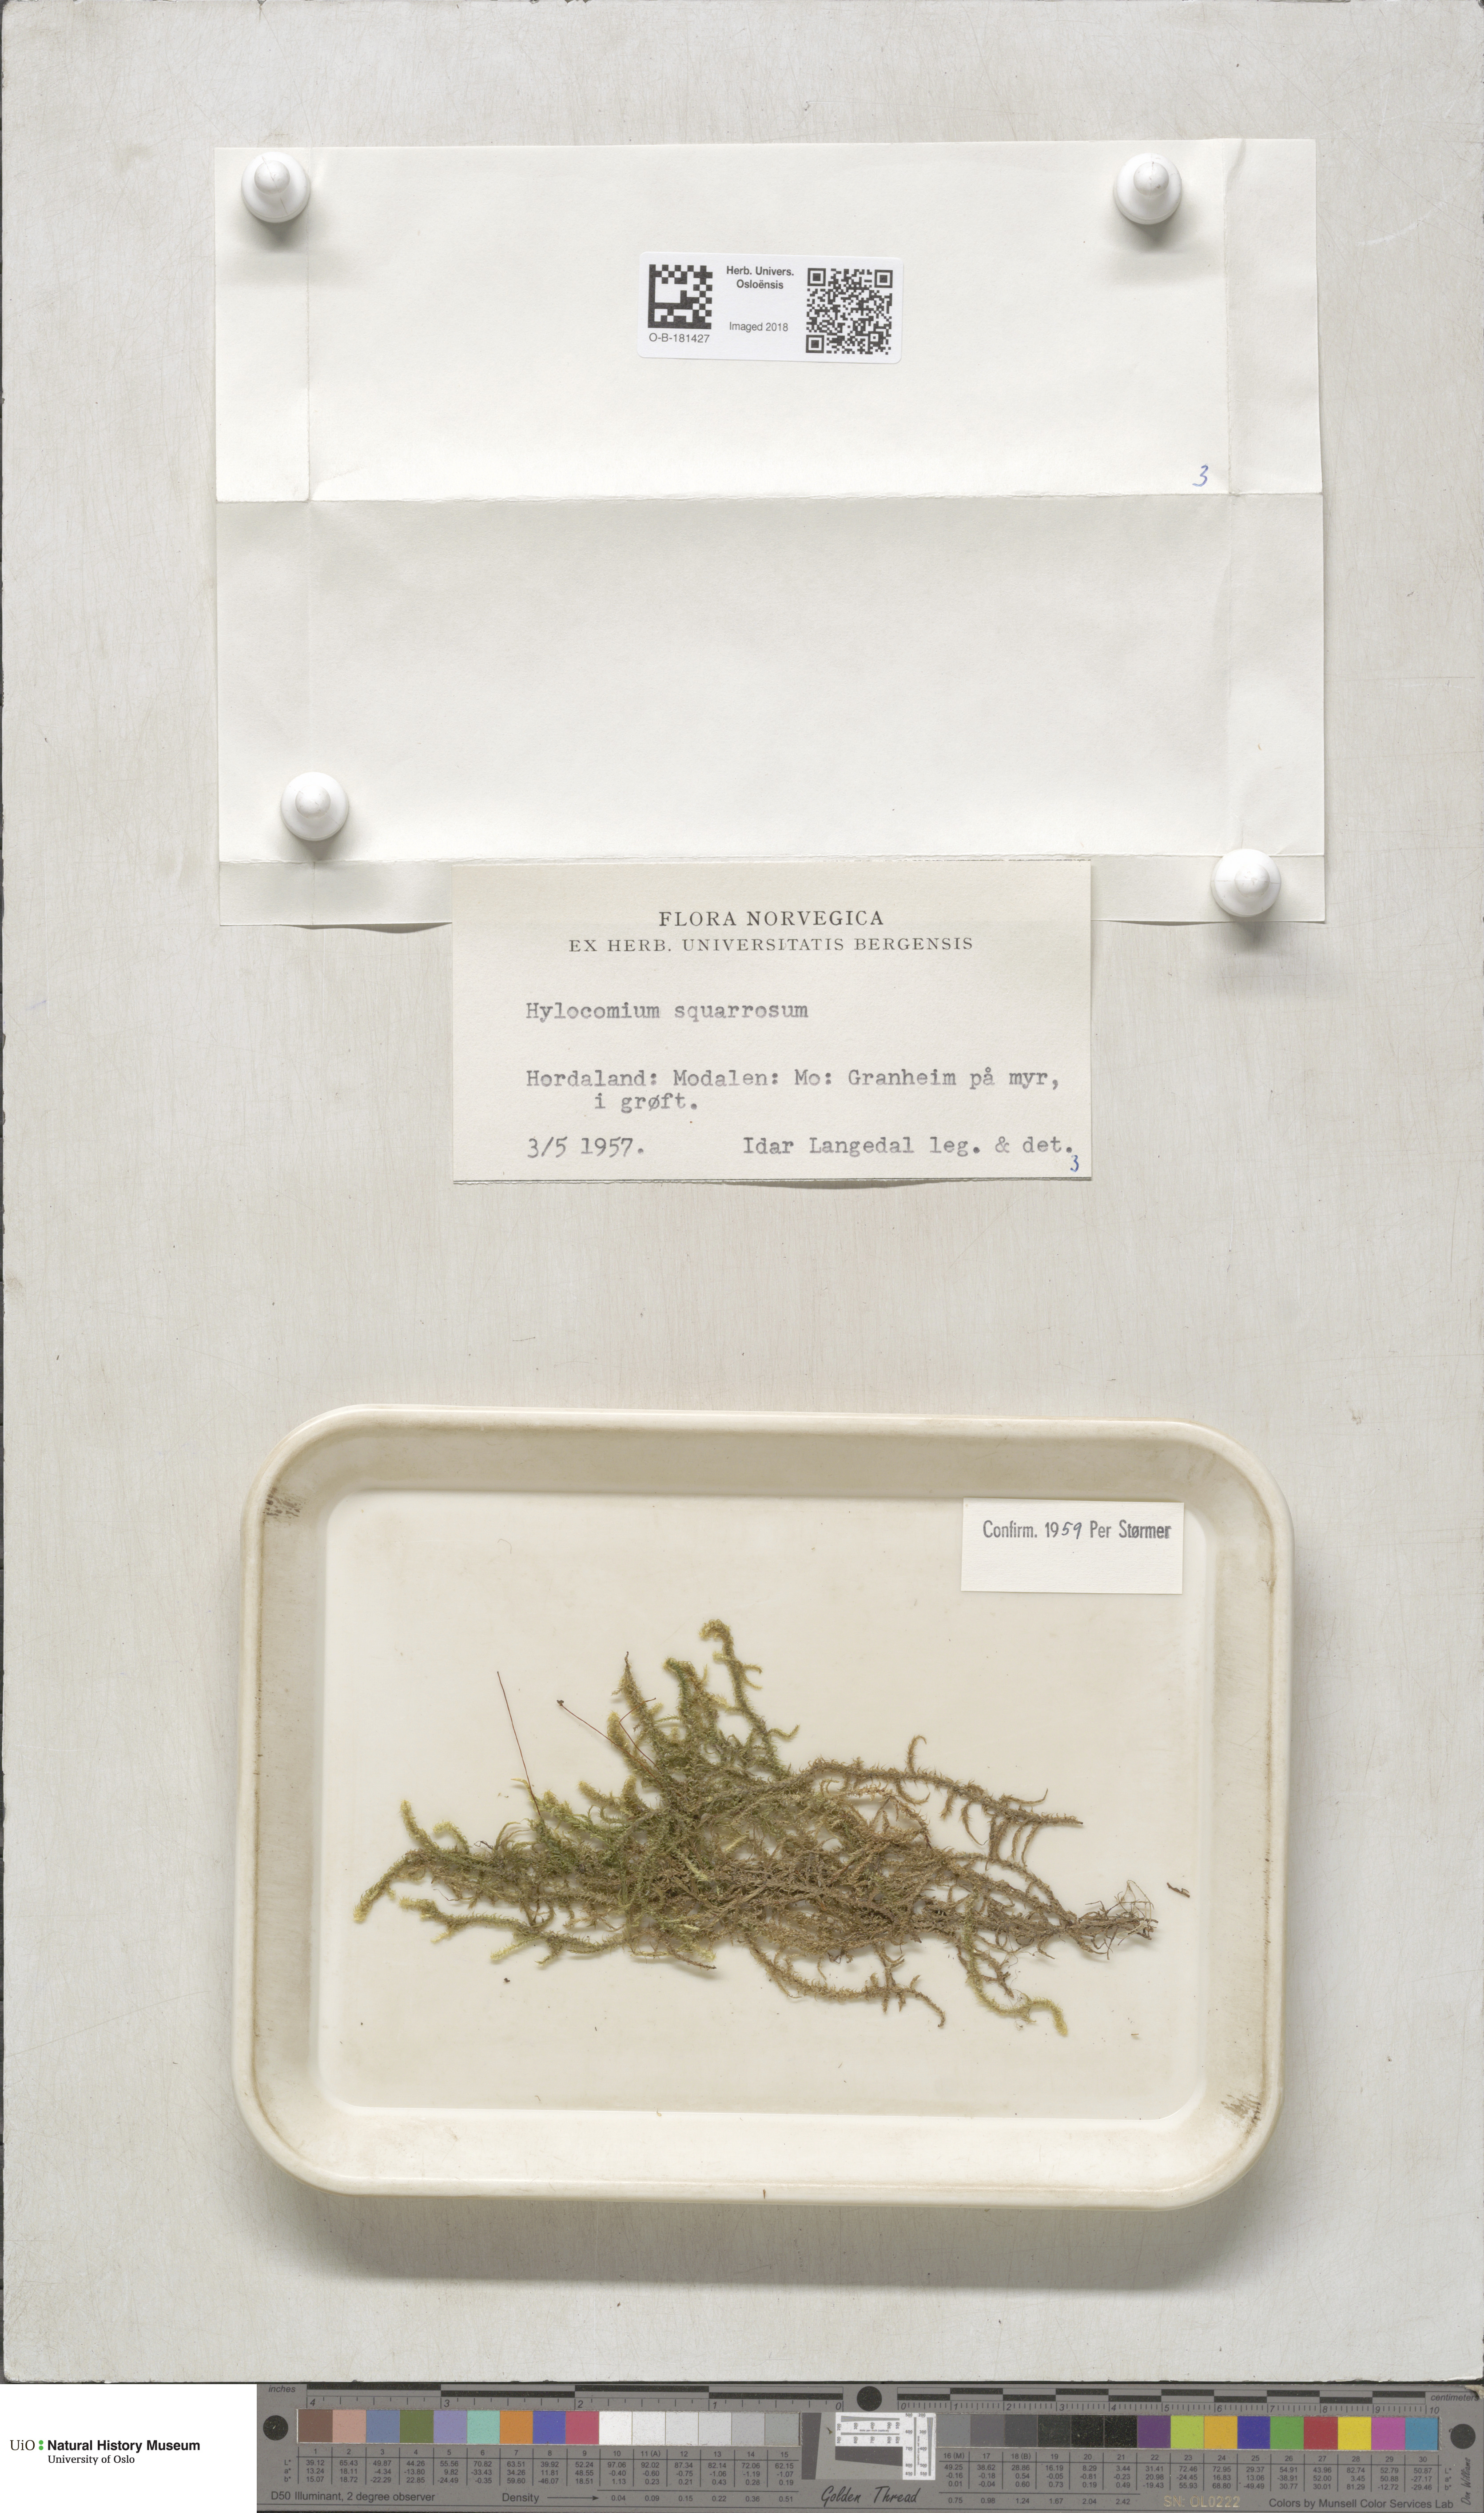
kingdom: Plantae
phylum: Bryophyta
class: Bryopsida
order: Hypnales
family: Hylocomiaceae
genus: Rhytidiadelphus
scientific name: Rhytidiadelphus squarrosus
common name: Springy turf-moss
